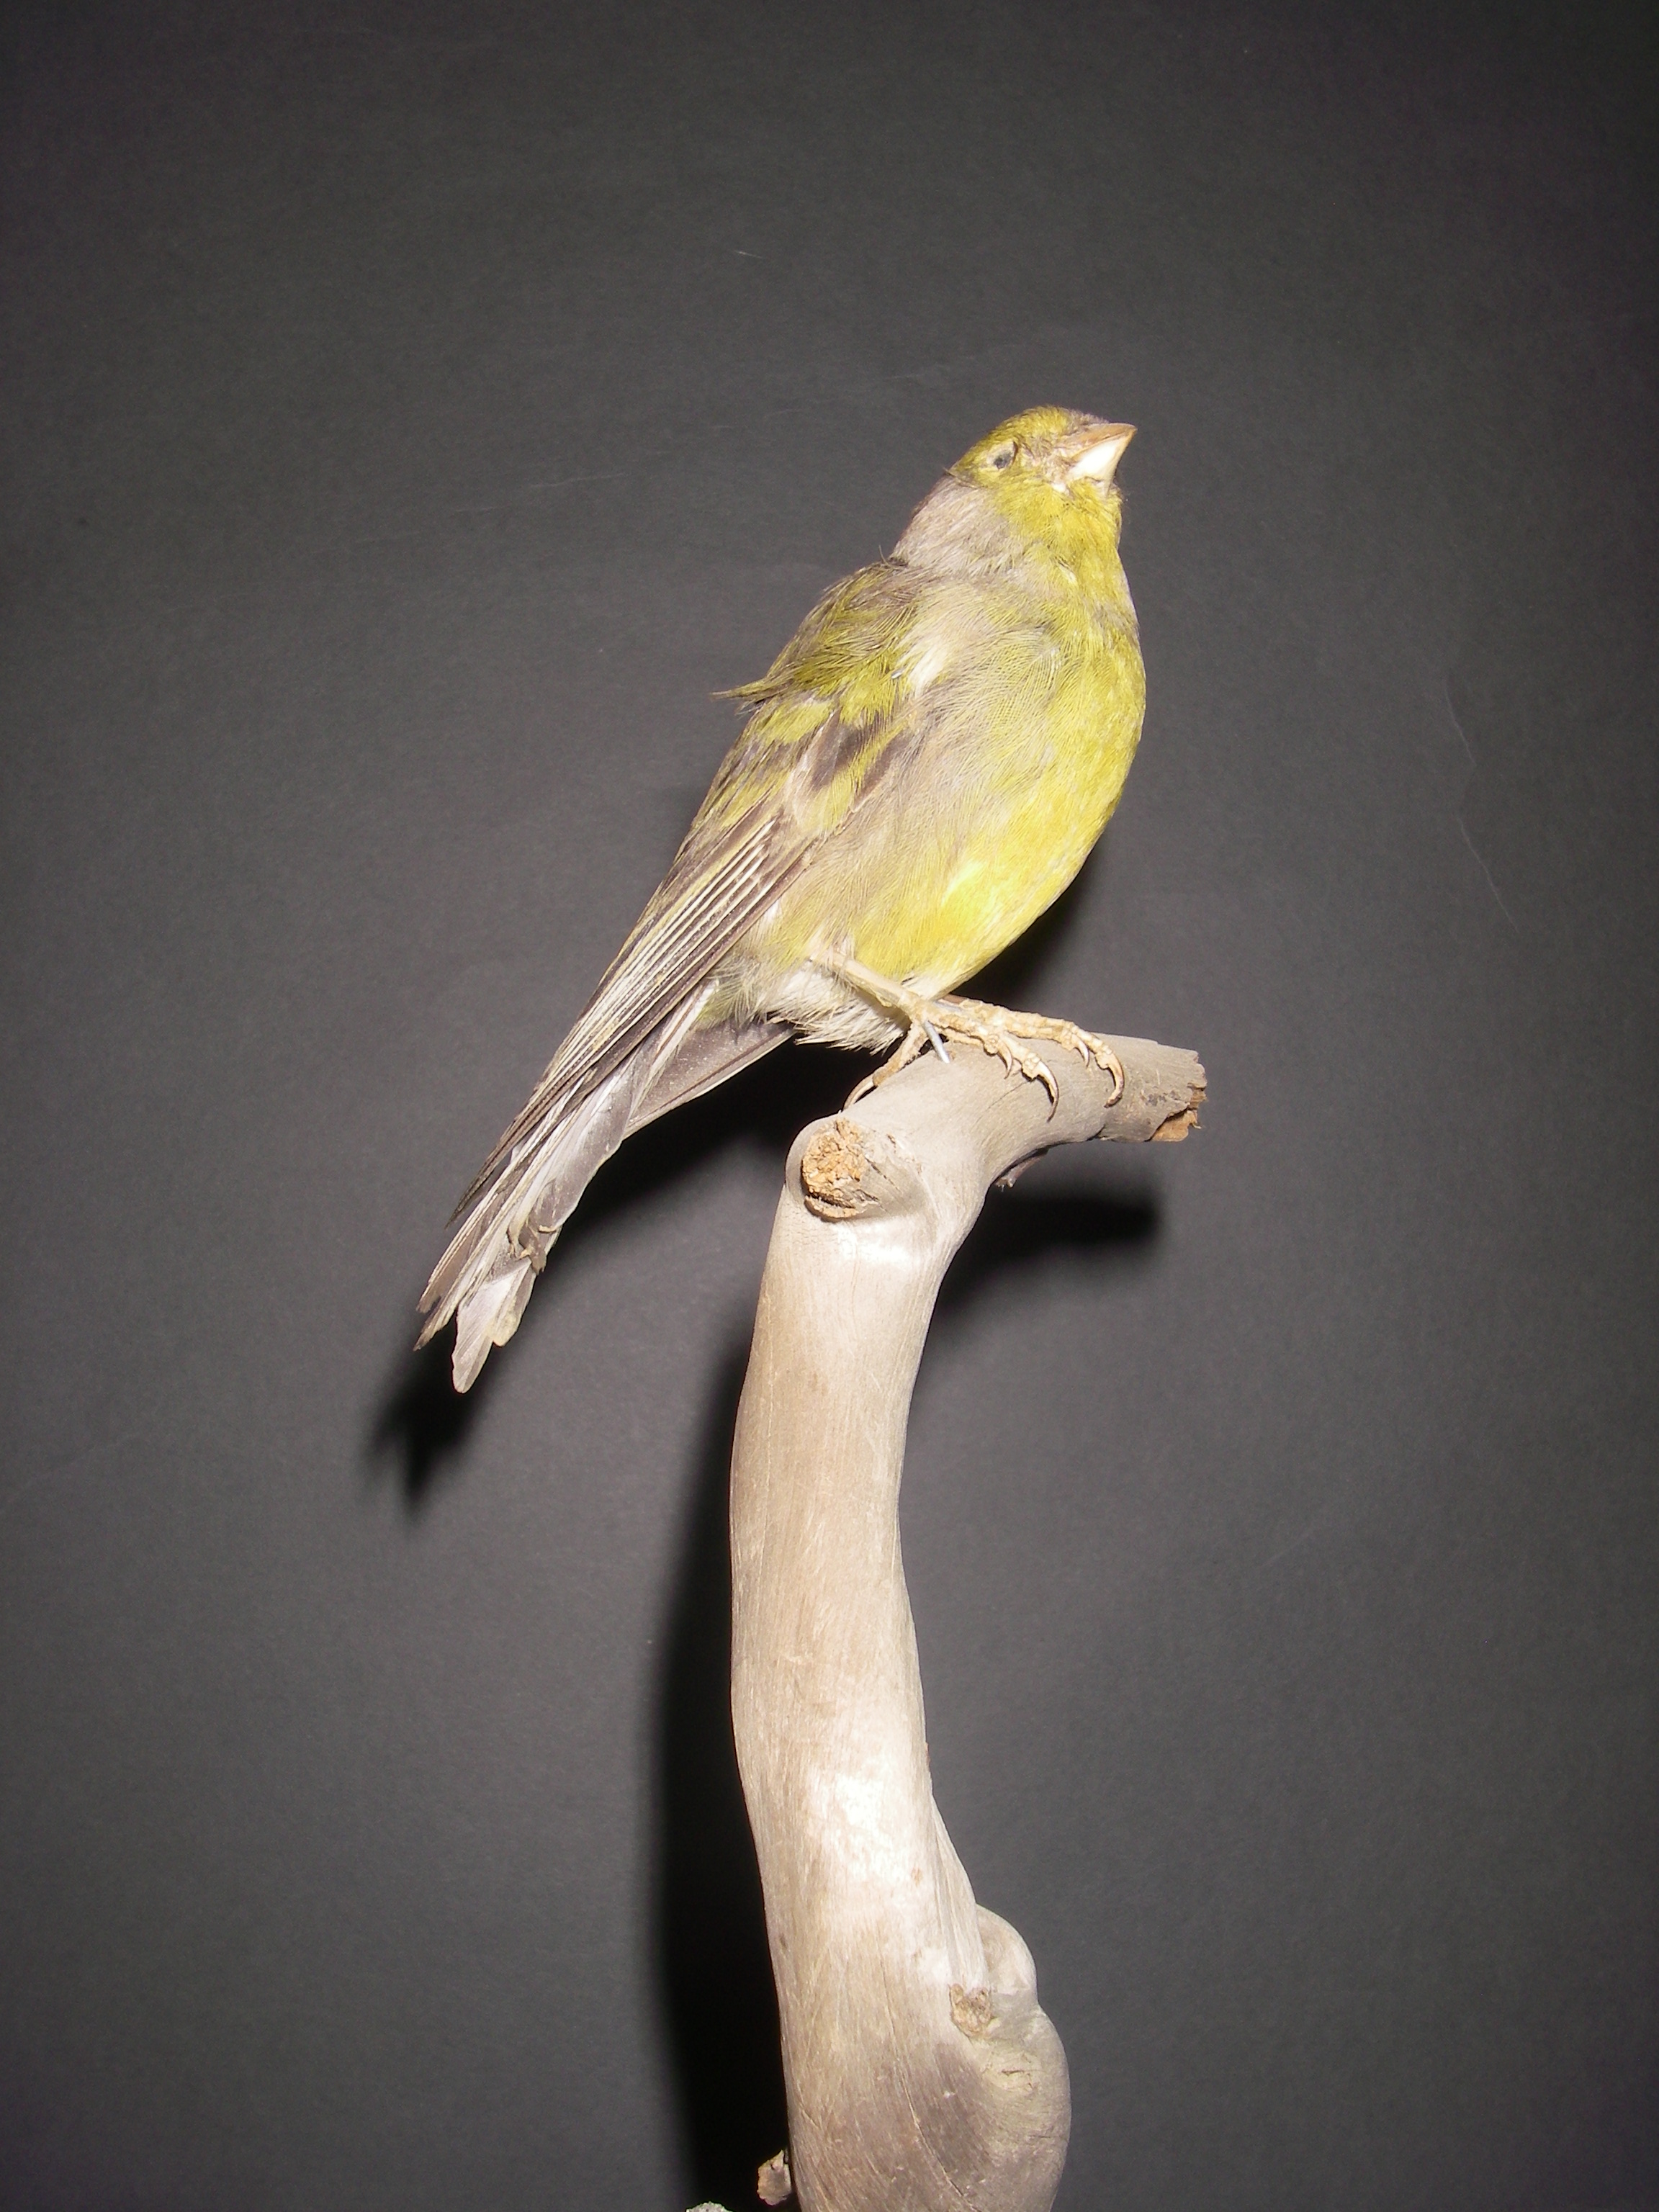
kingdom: Animalia
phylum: Chordata
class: Aves
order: Passeriformes
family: Fringillidae
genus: Serinus
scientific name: Serinus canicollis
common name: Cape canary
